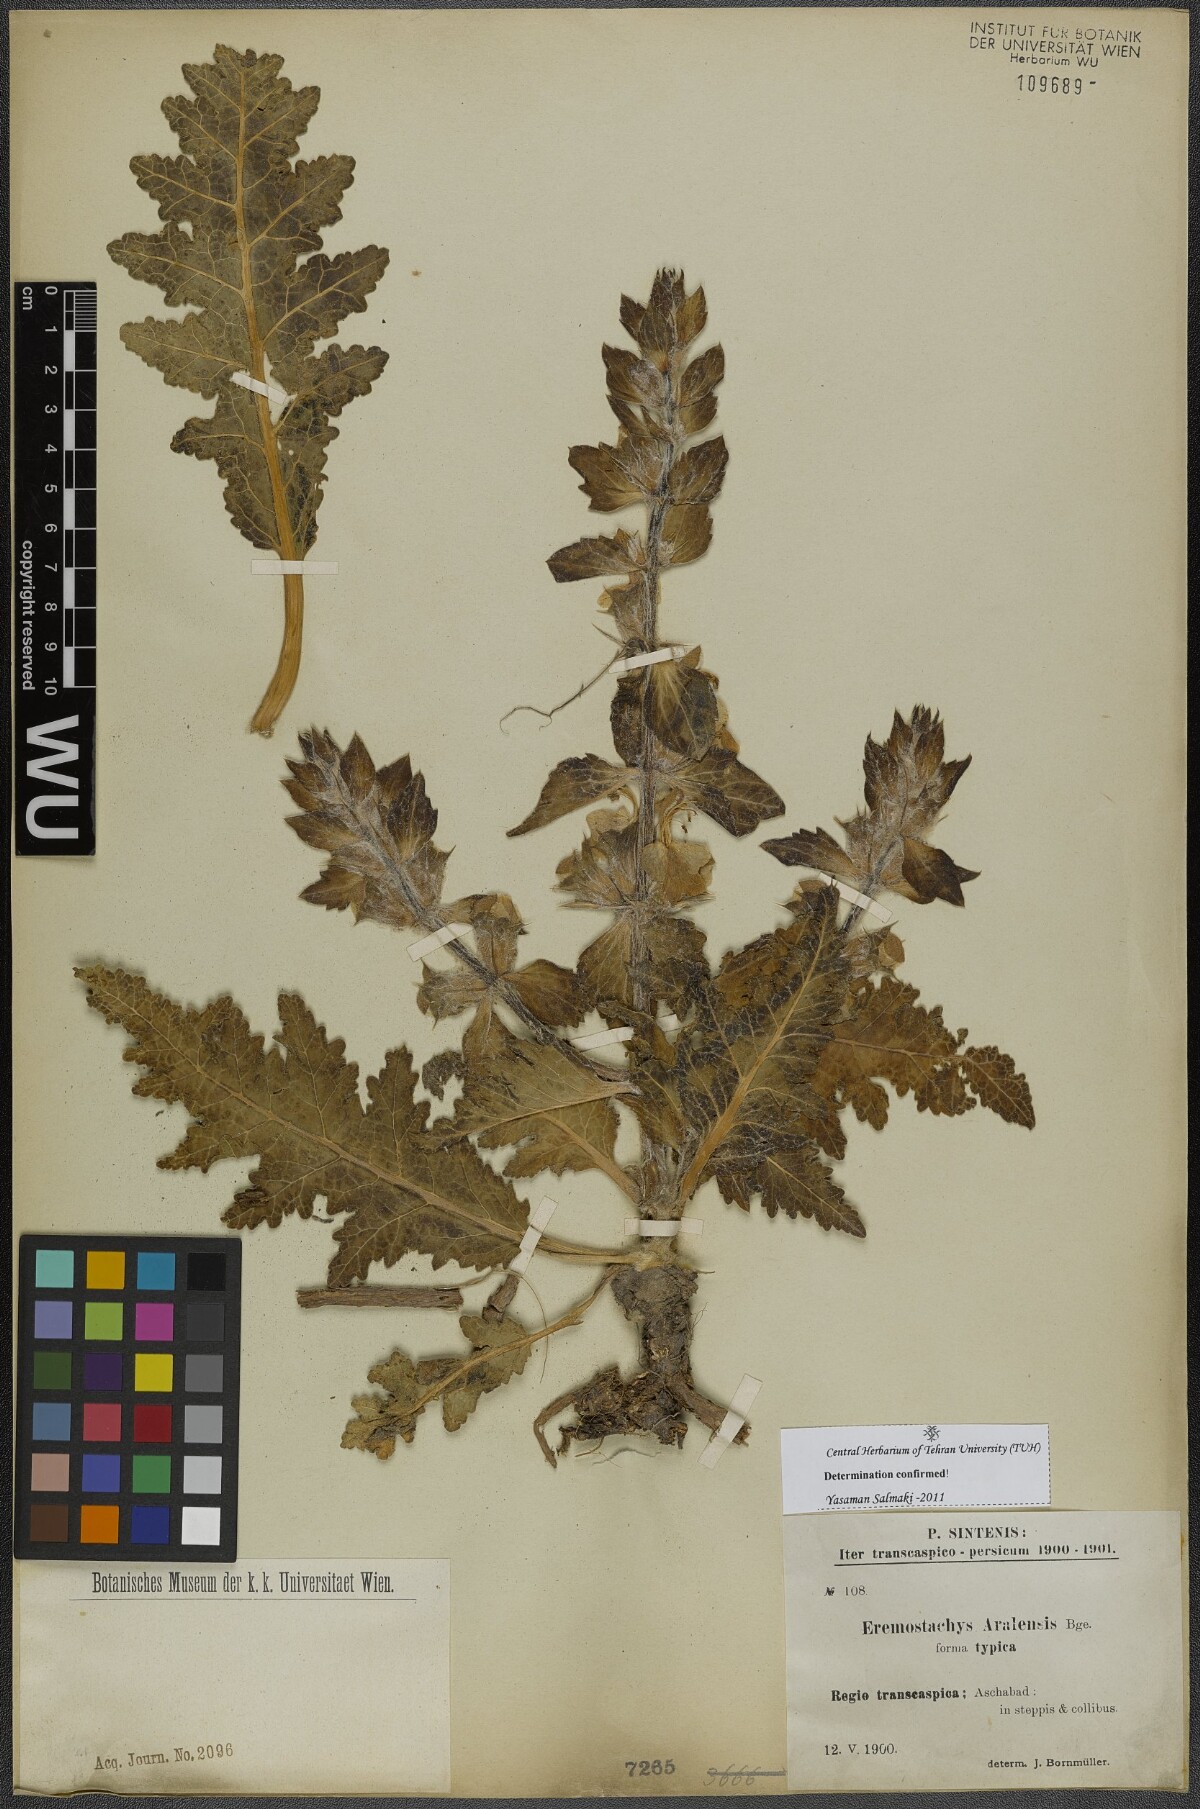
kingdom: Plantae
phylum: Tracheophyta
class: Magnoliopsida
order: Lamiales
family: Lamiaceae
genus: Phlomoides
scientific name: Phlomoides aralensis
